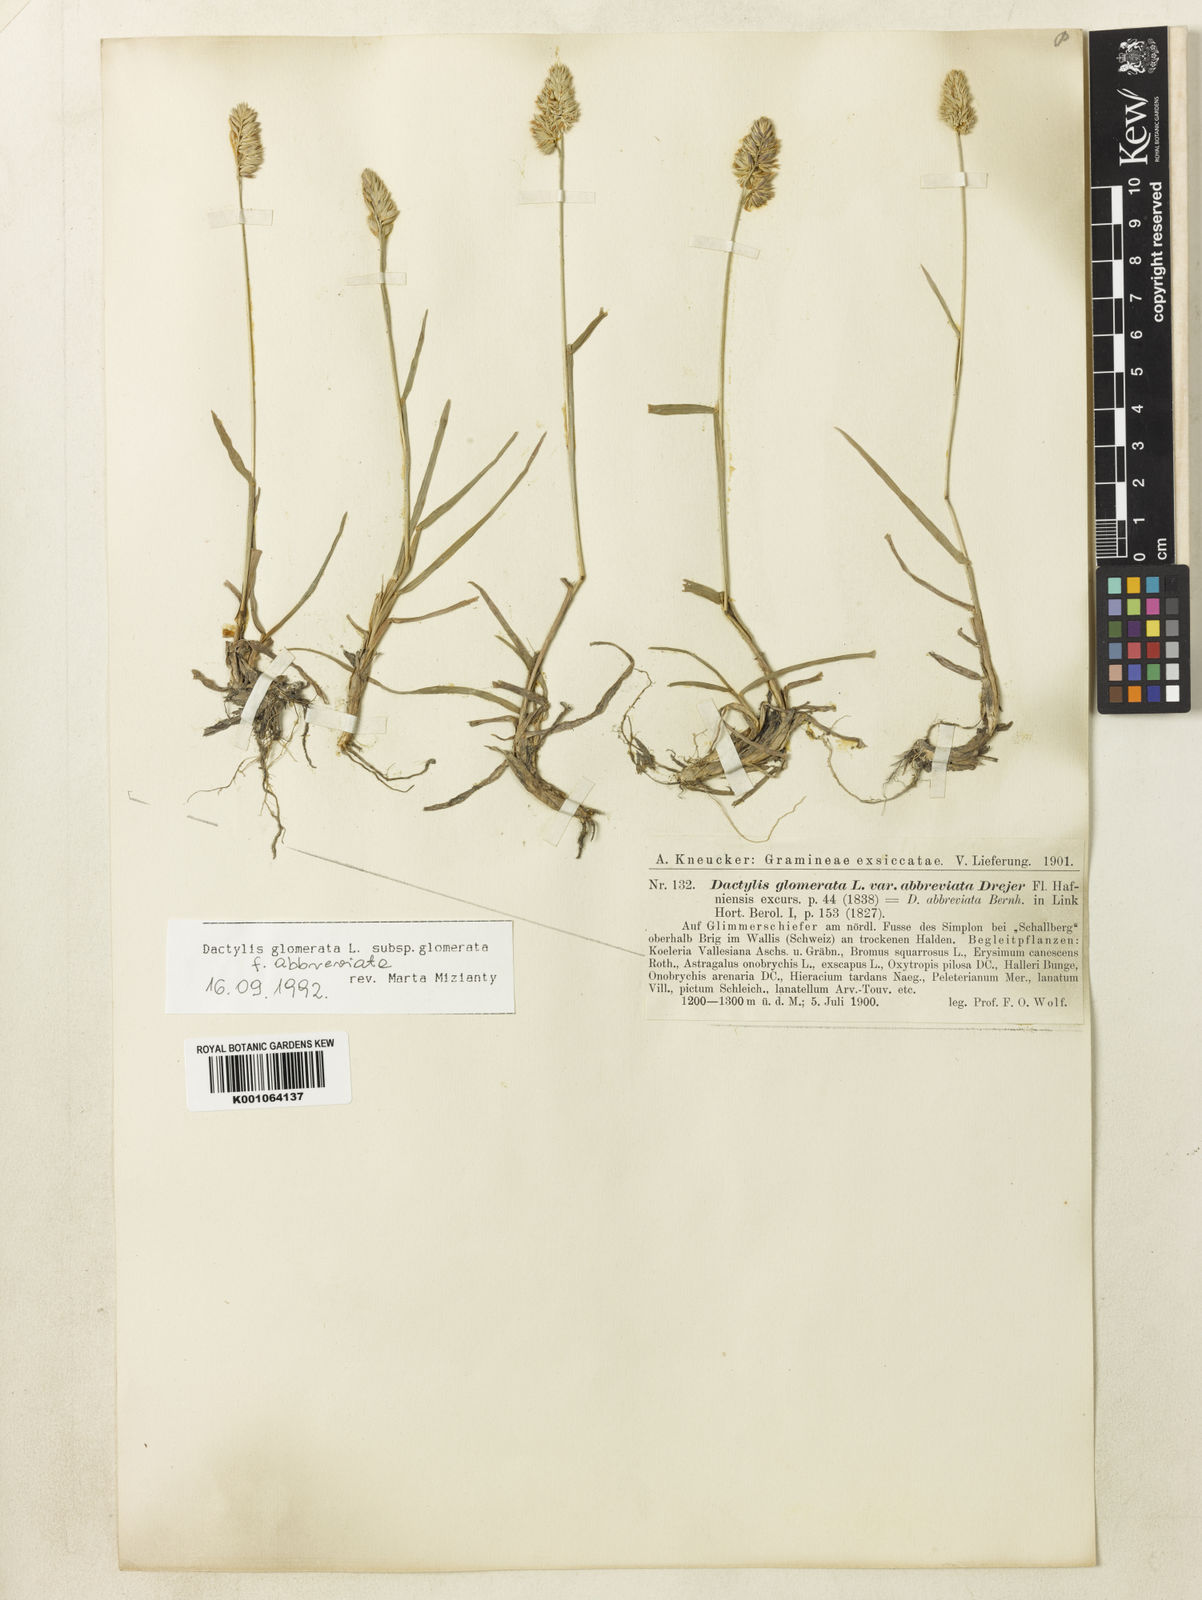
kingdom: Plantae
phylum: Tracheophyta
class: Liliopsida
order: Poales
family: Poaceae
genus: Dactylis
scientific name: Dactylis glomerata
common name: Orchardgrass
